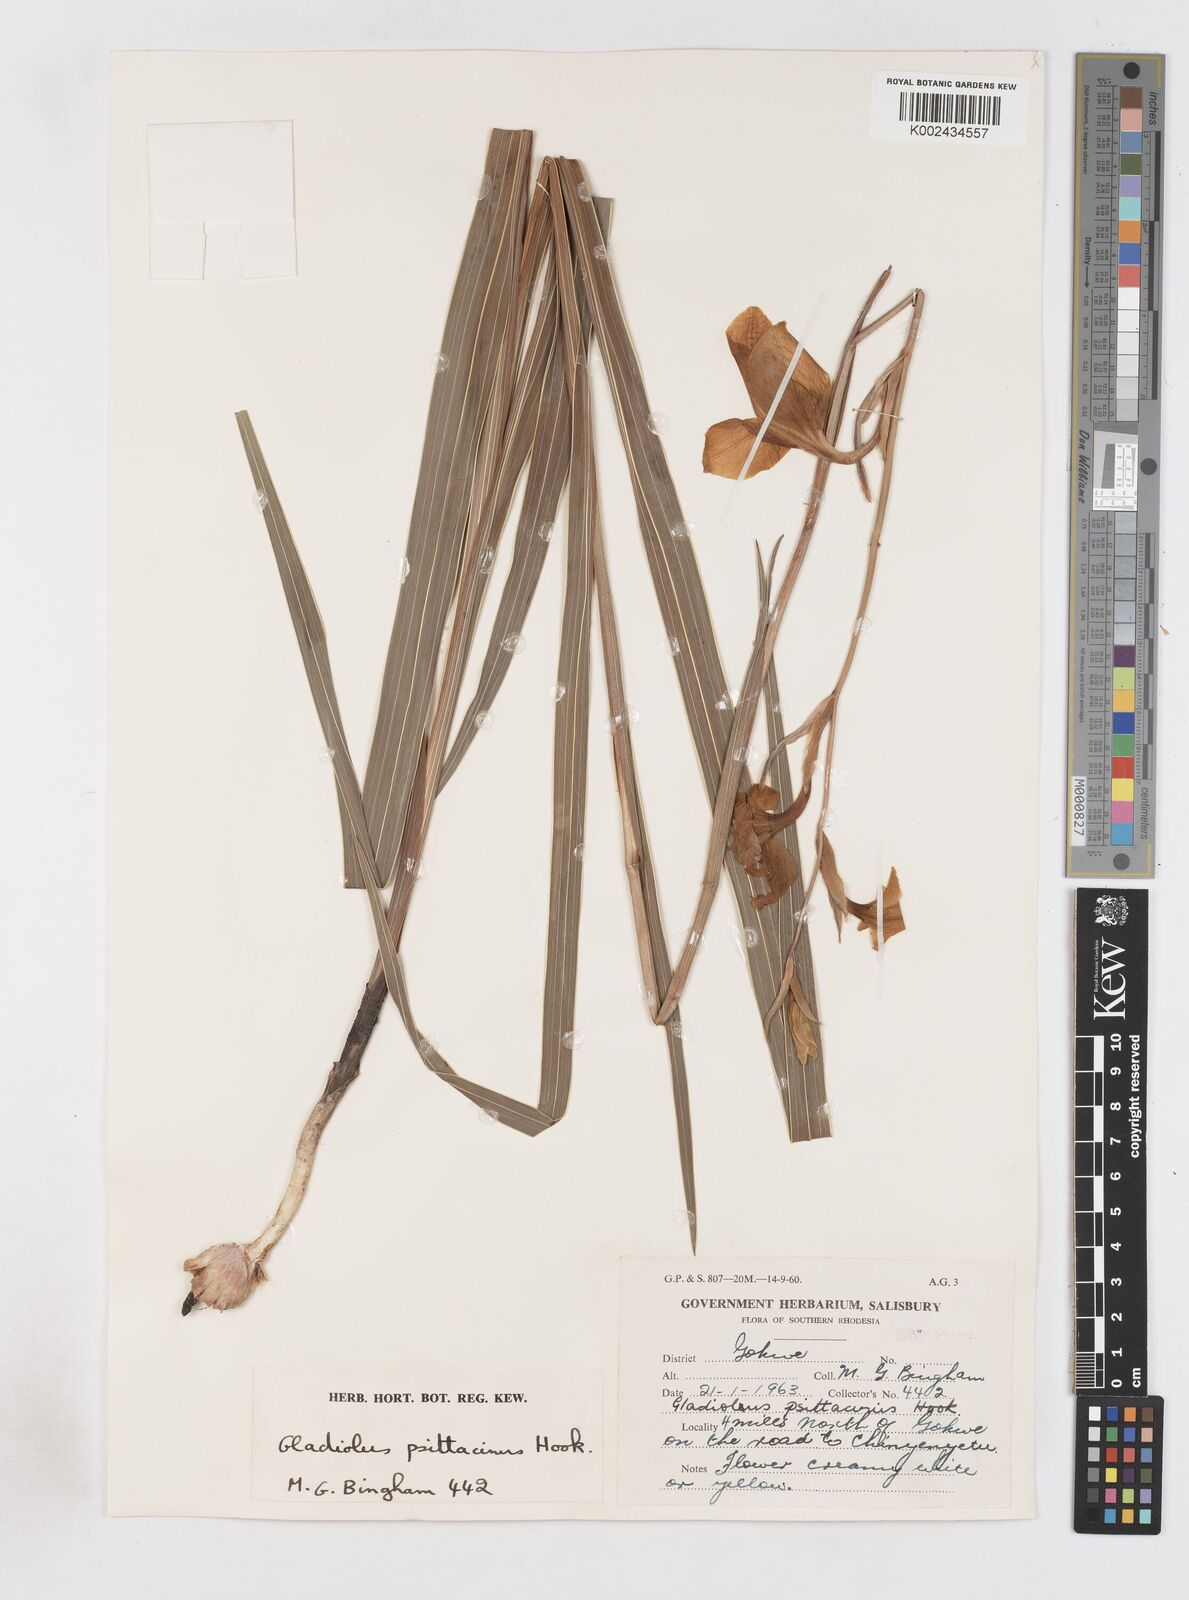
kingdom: Plantae
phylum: Tracheophyta
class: Liliopsida
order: Asparagales
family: Iridaceae
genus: Gladiolus
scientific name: Gladiolus dalenii
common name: Cornflag
